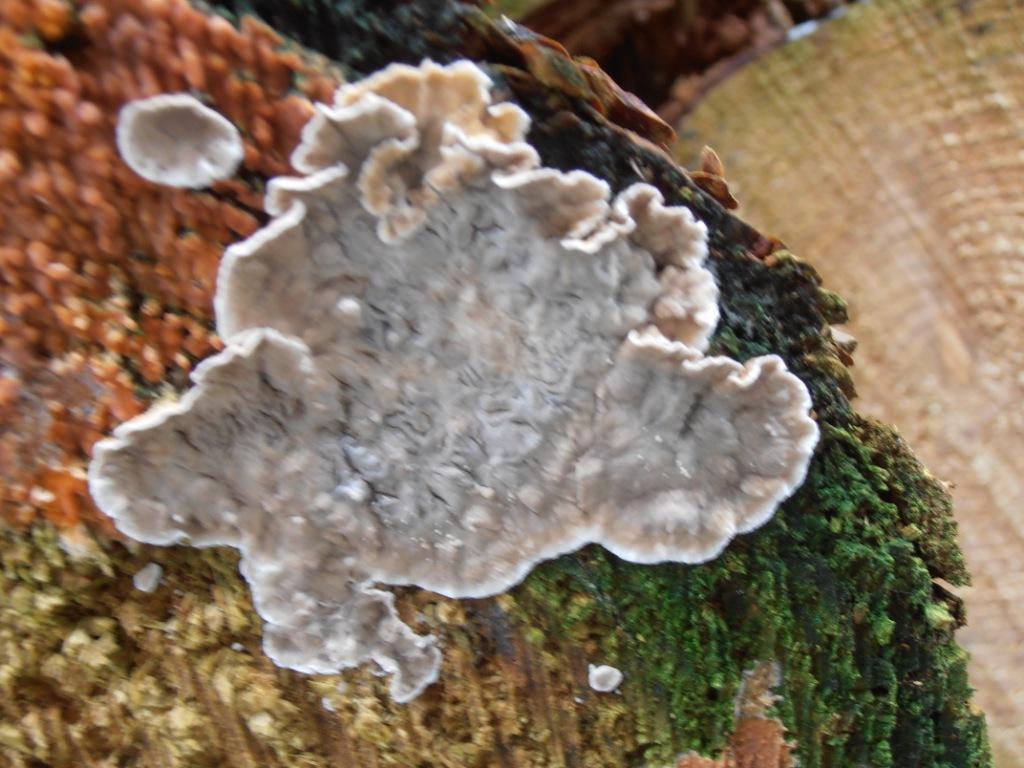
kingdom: Fungi
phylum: Basidiomycota
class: Agaricomycetes
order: Russulales
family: Stereaceae
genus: Stereum
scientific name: Stereum sanguinolentum
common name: blødende lædersvamp
